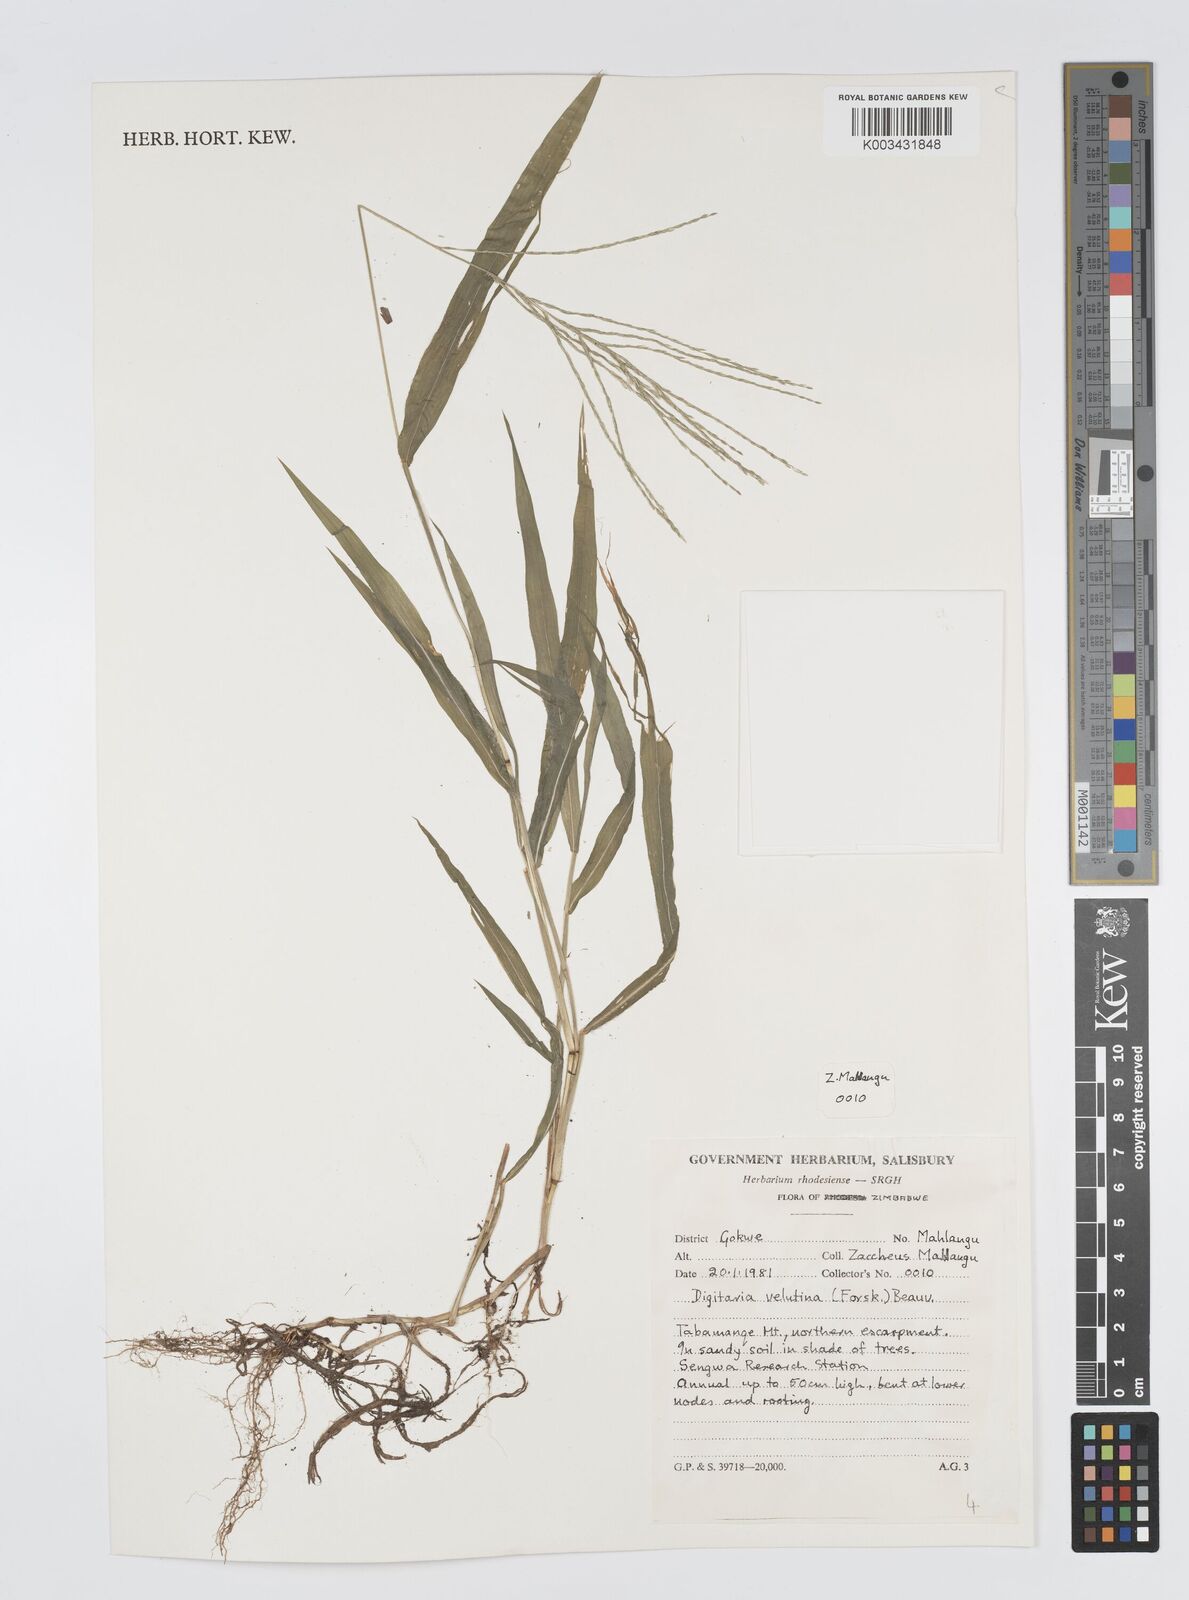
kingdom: Plantae
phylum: Tracheophyta
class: Liliopsida
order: Poales
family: Poaceae
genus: Digitaria
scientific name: Digitaria velutina
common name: Long-plume finger grass
